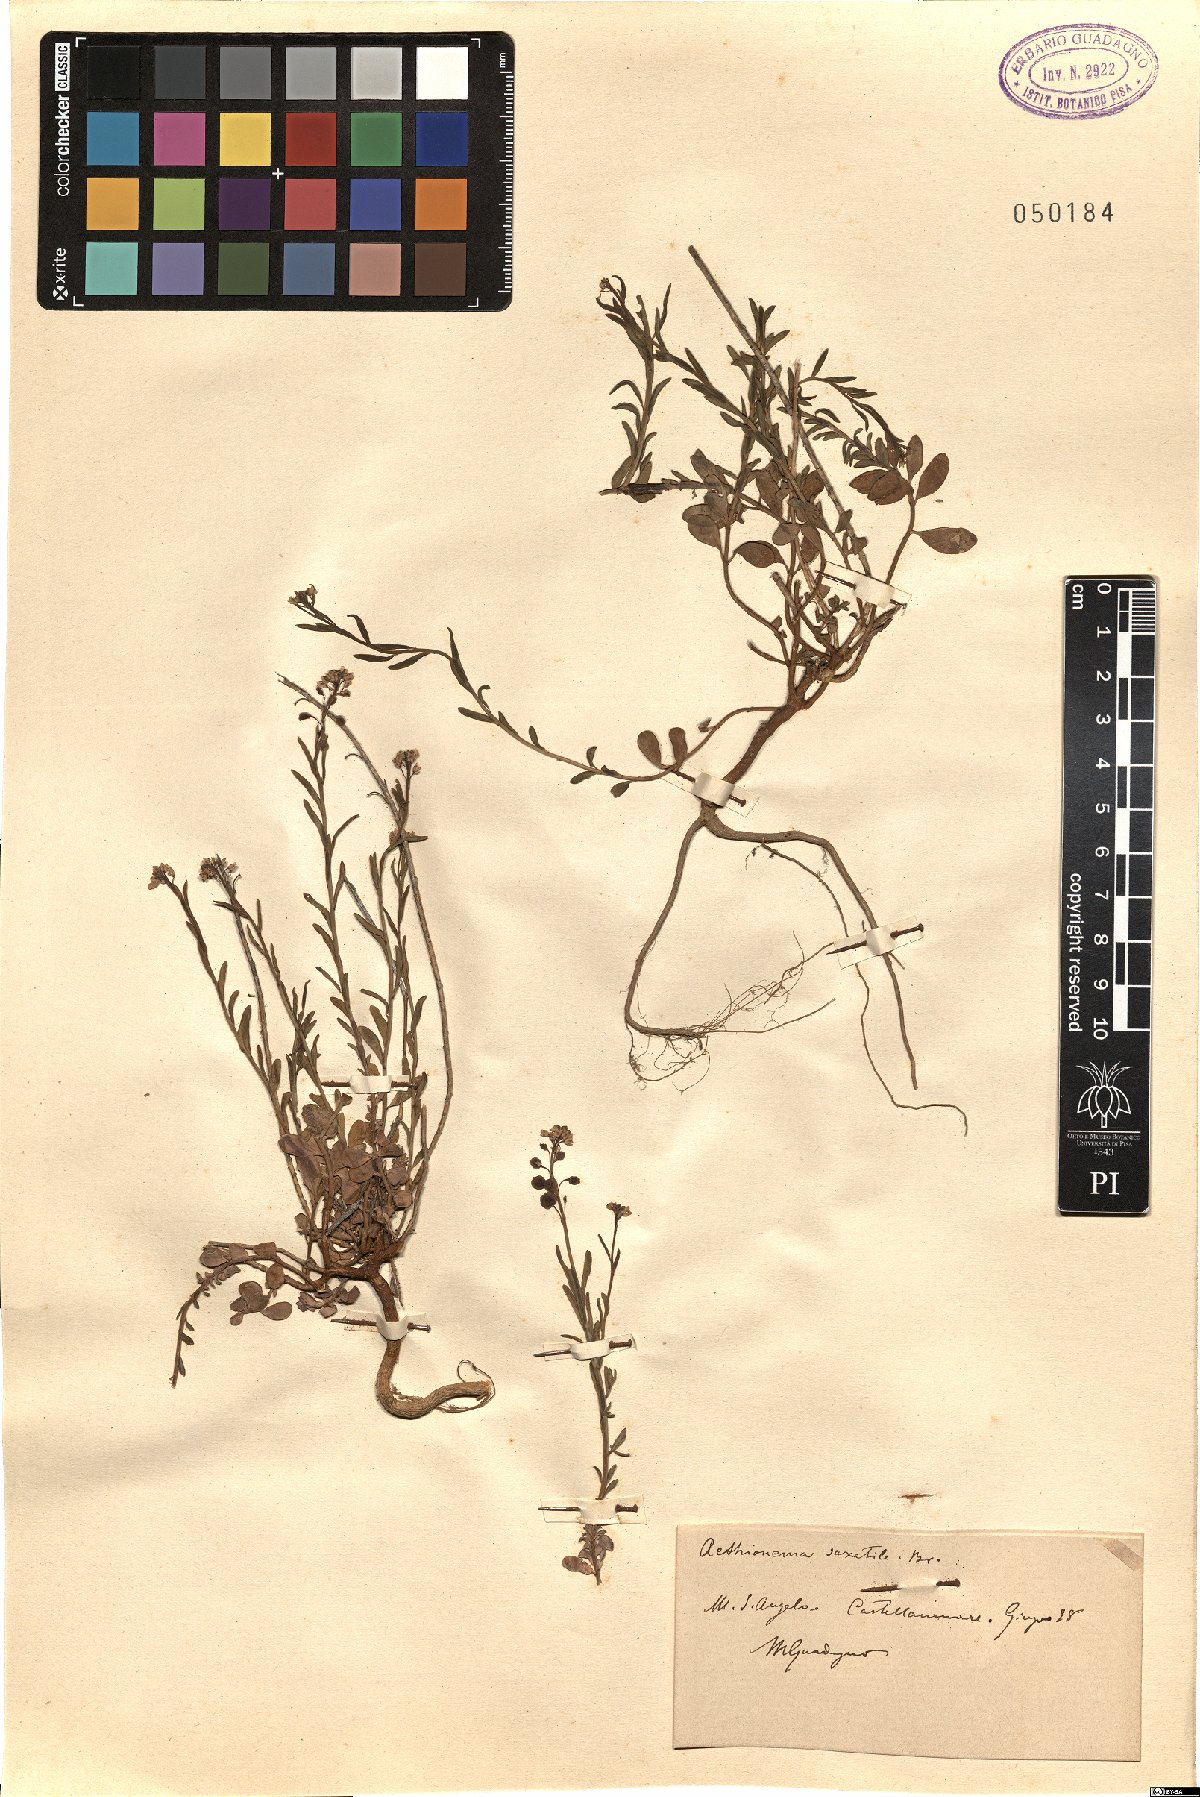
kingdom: Plantae
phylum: Tracheophyta
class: Magnoliopsida
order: Brassicales
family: Brassicaceae
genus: Aethionema
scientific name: Aethionema saxatile
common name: Burnt candytuft
